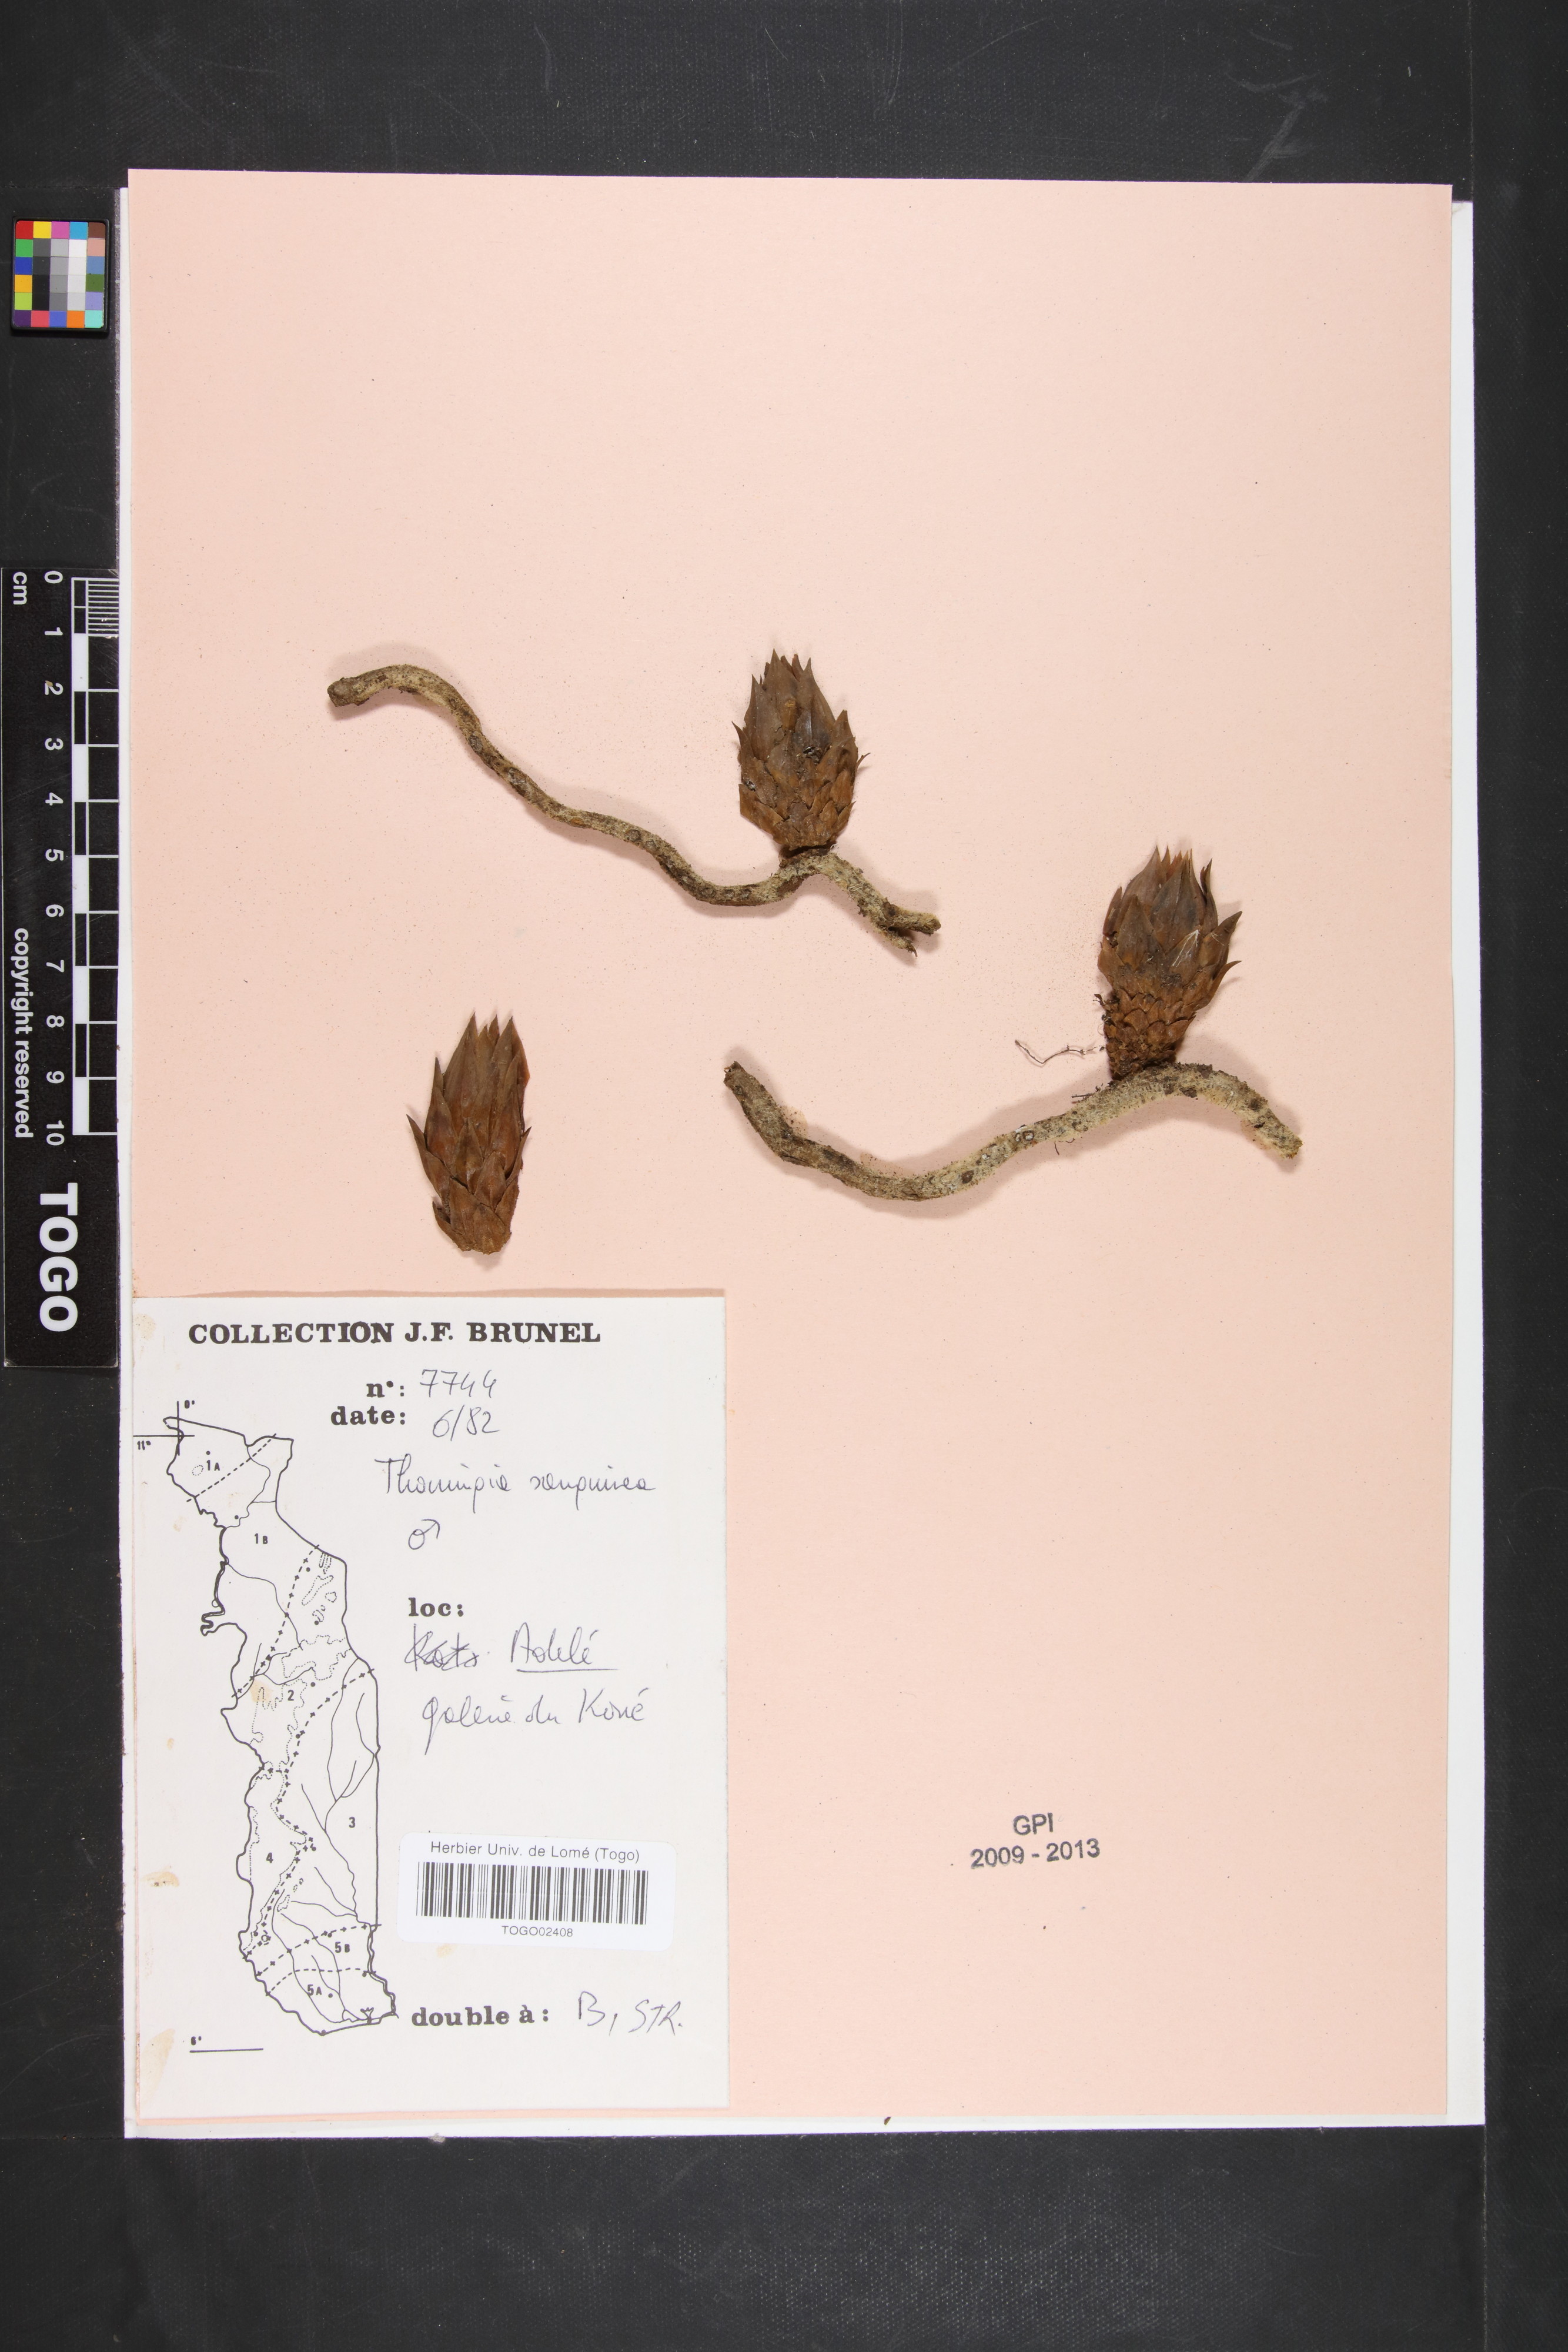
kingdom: Plantae
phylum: Tracheophyta
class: Magnoliopsida
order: Santalales
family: Balanophoraceae
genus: Thonningia
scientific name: Thonningia sanguinea
